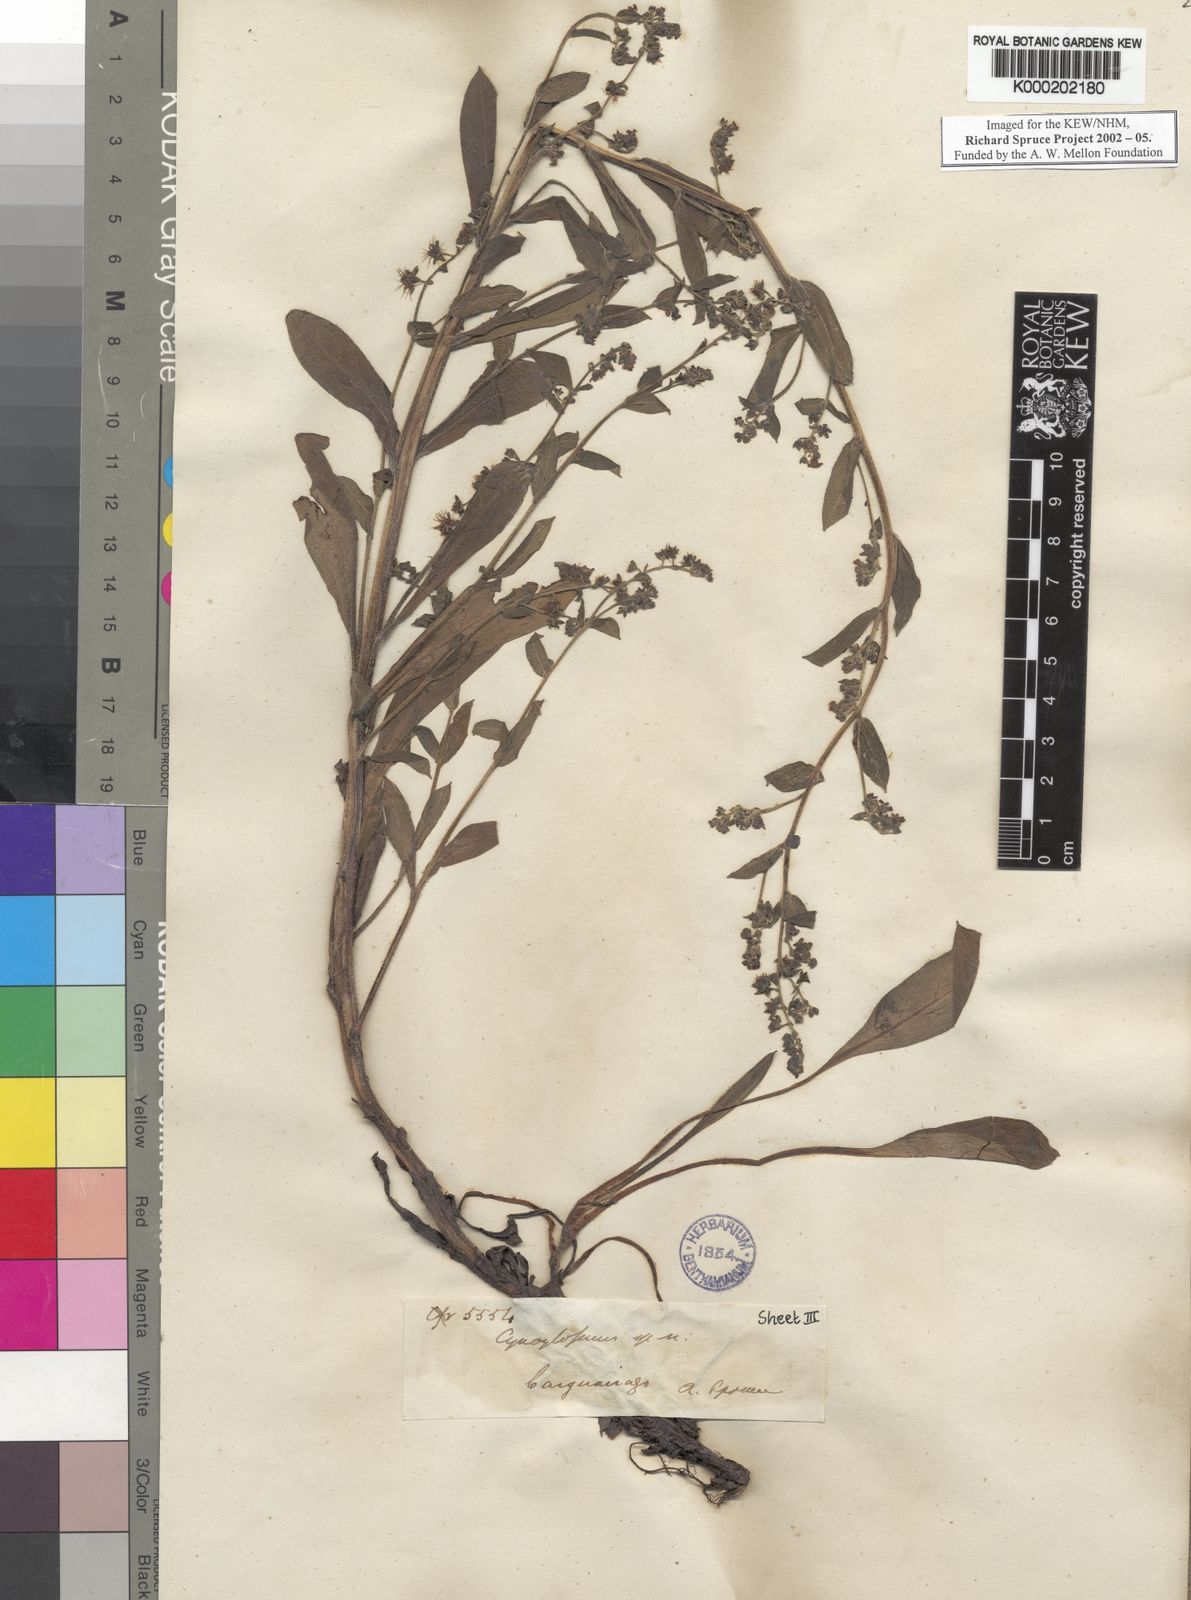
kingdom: Plantae
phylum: Tracheophyta
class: Magnoliopsida
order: Boraginales
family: Boraginaceae
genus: Hackelia
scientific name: Hackelia revoluta
